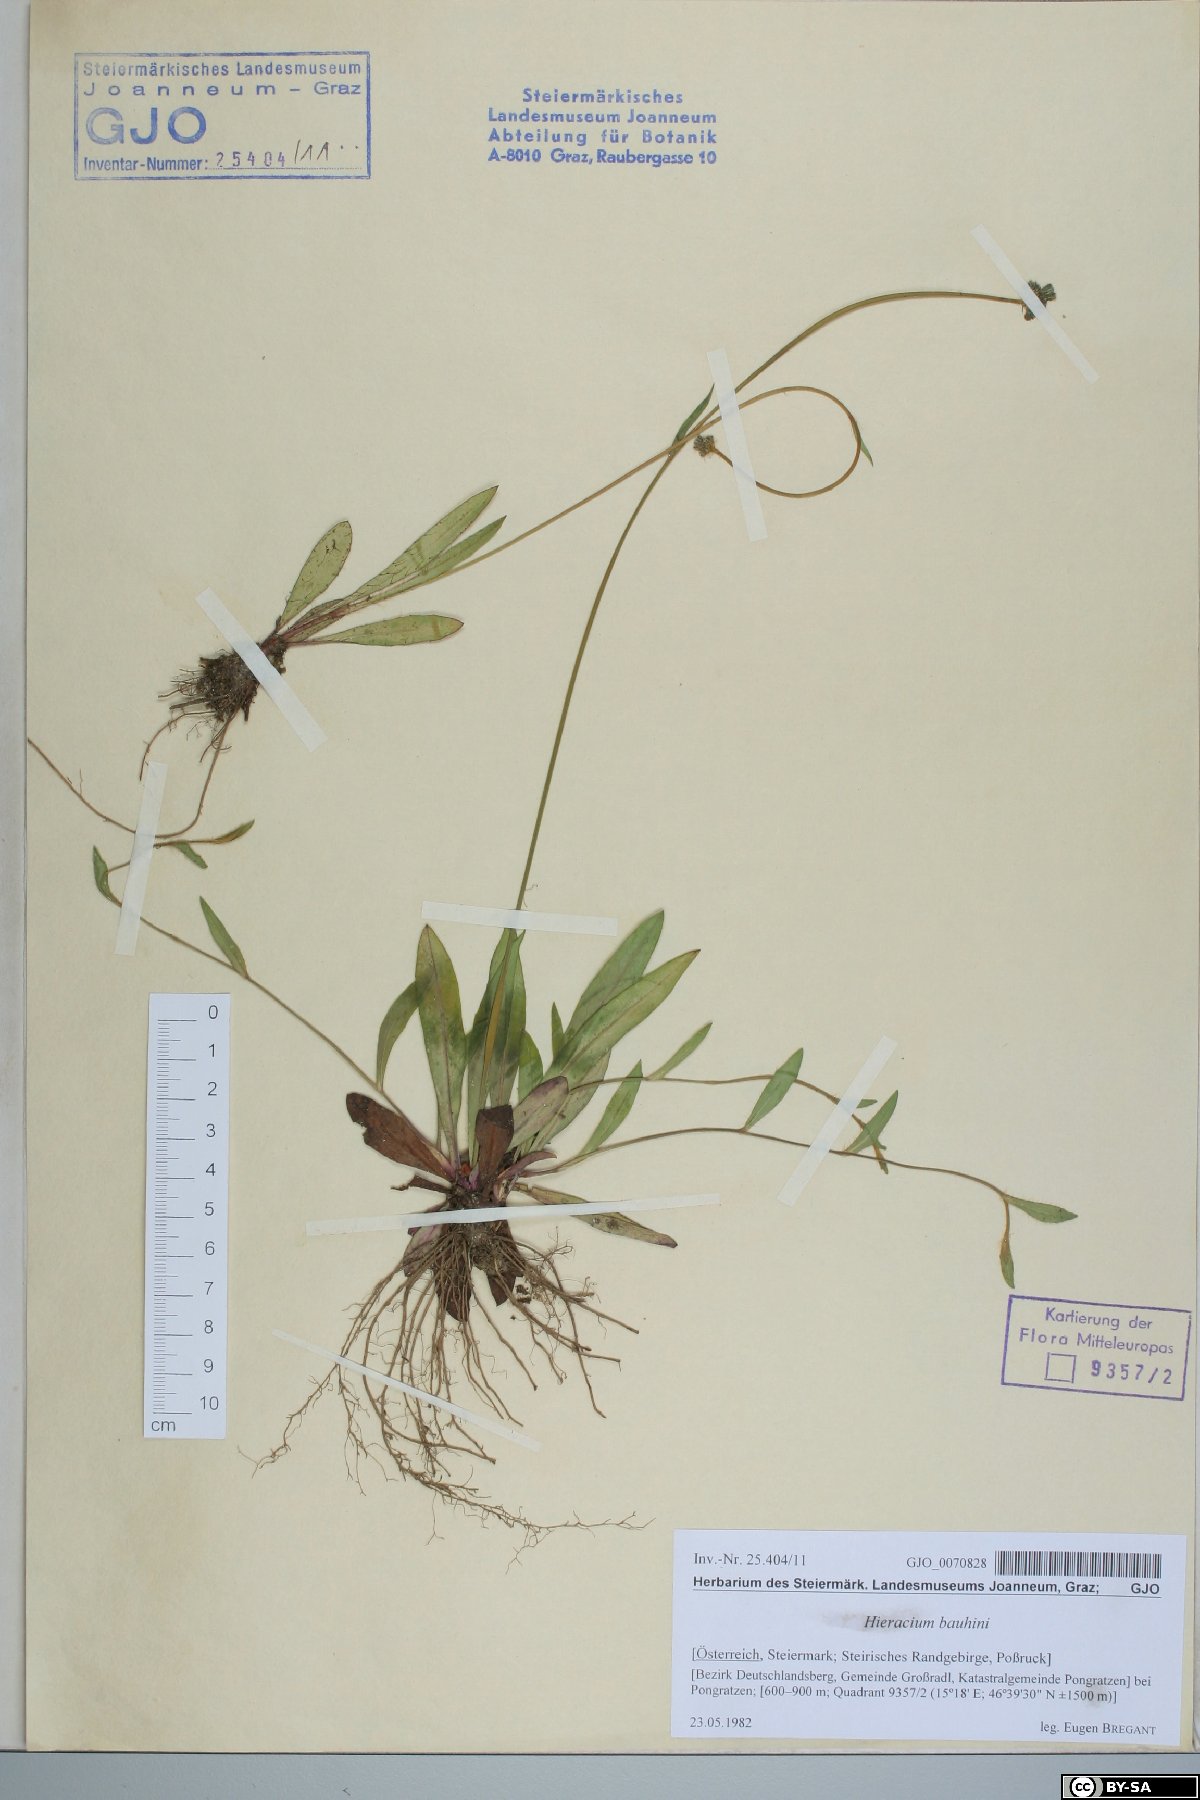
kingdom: Plantae
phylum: Tracheophyta
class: Magnoliopsida
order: Asterales
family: Asteraceae
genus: Pilosella
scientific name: Pilosella bauhini
